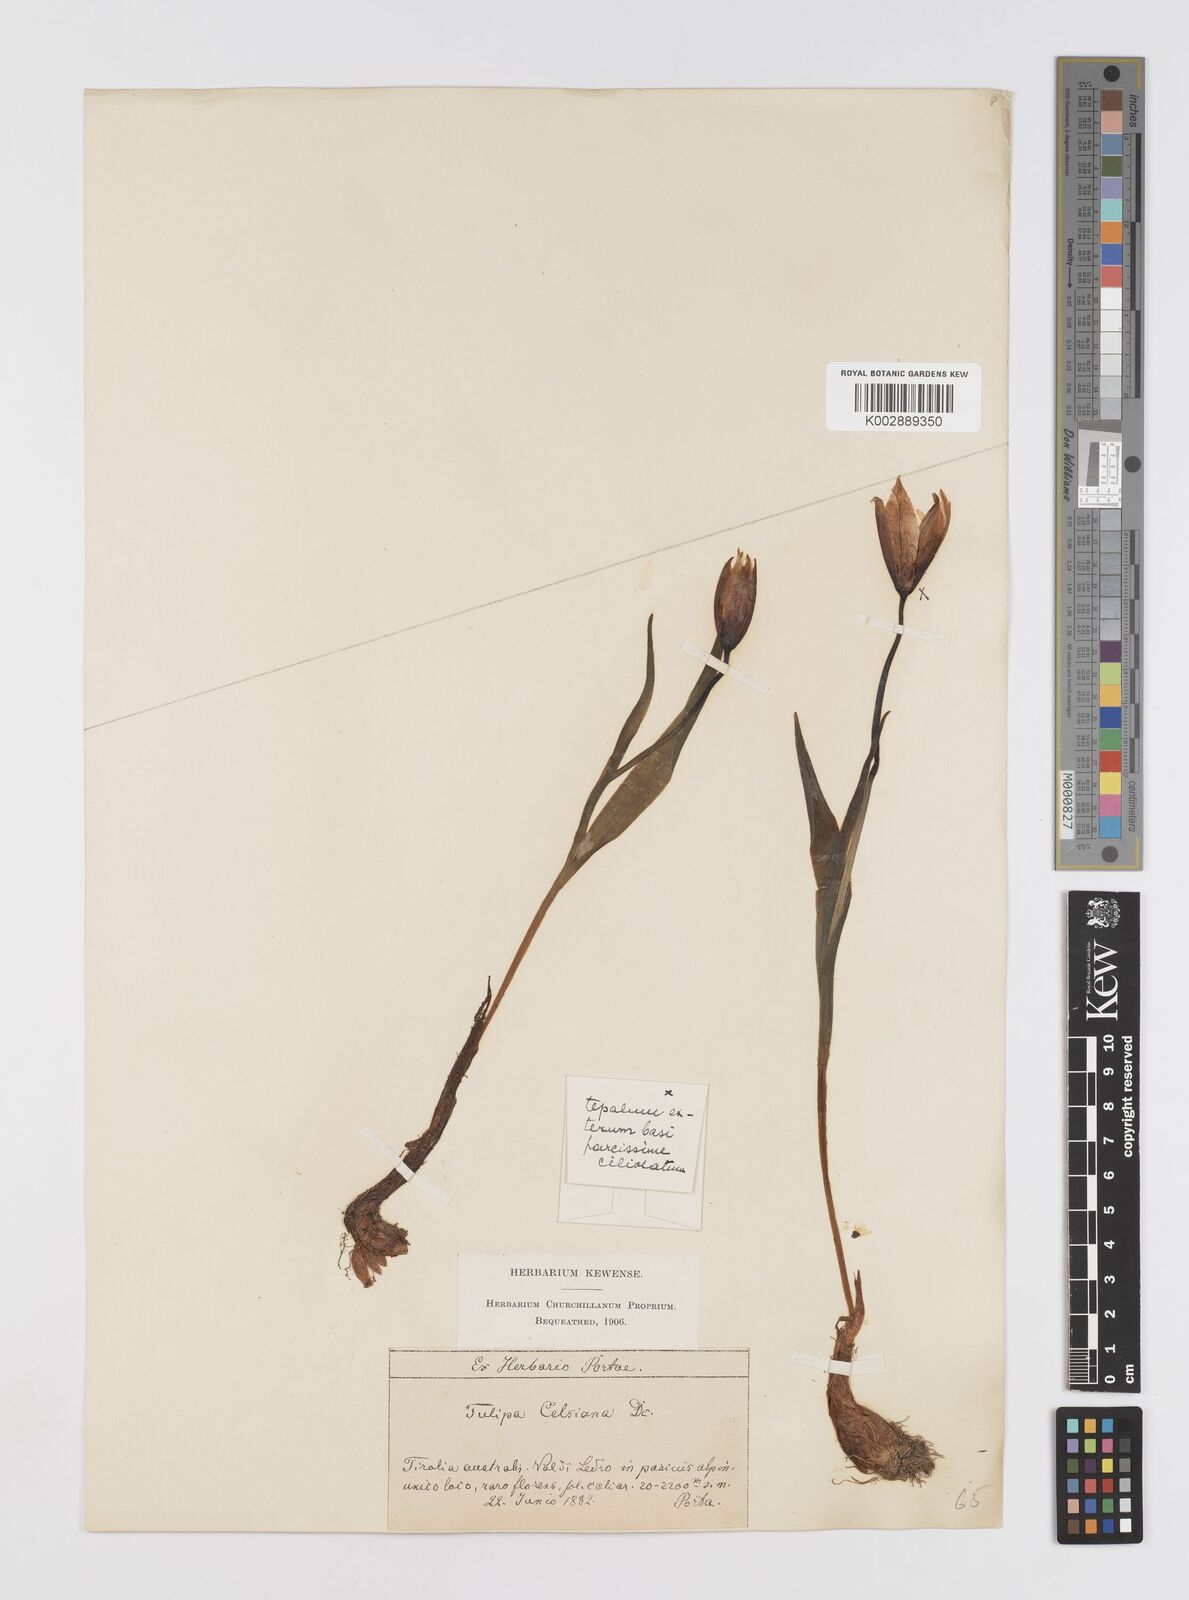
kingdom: Plantae
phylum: Tracheophyta
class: Liliopsida
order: Liliales
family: Liliaceae
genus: Tulipa
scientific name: Tulipa sylvestris
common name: Wild tulip
